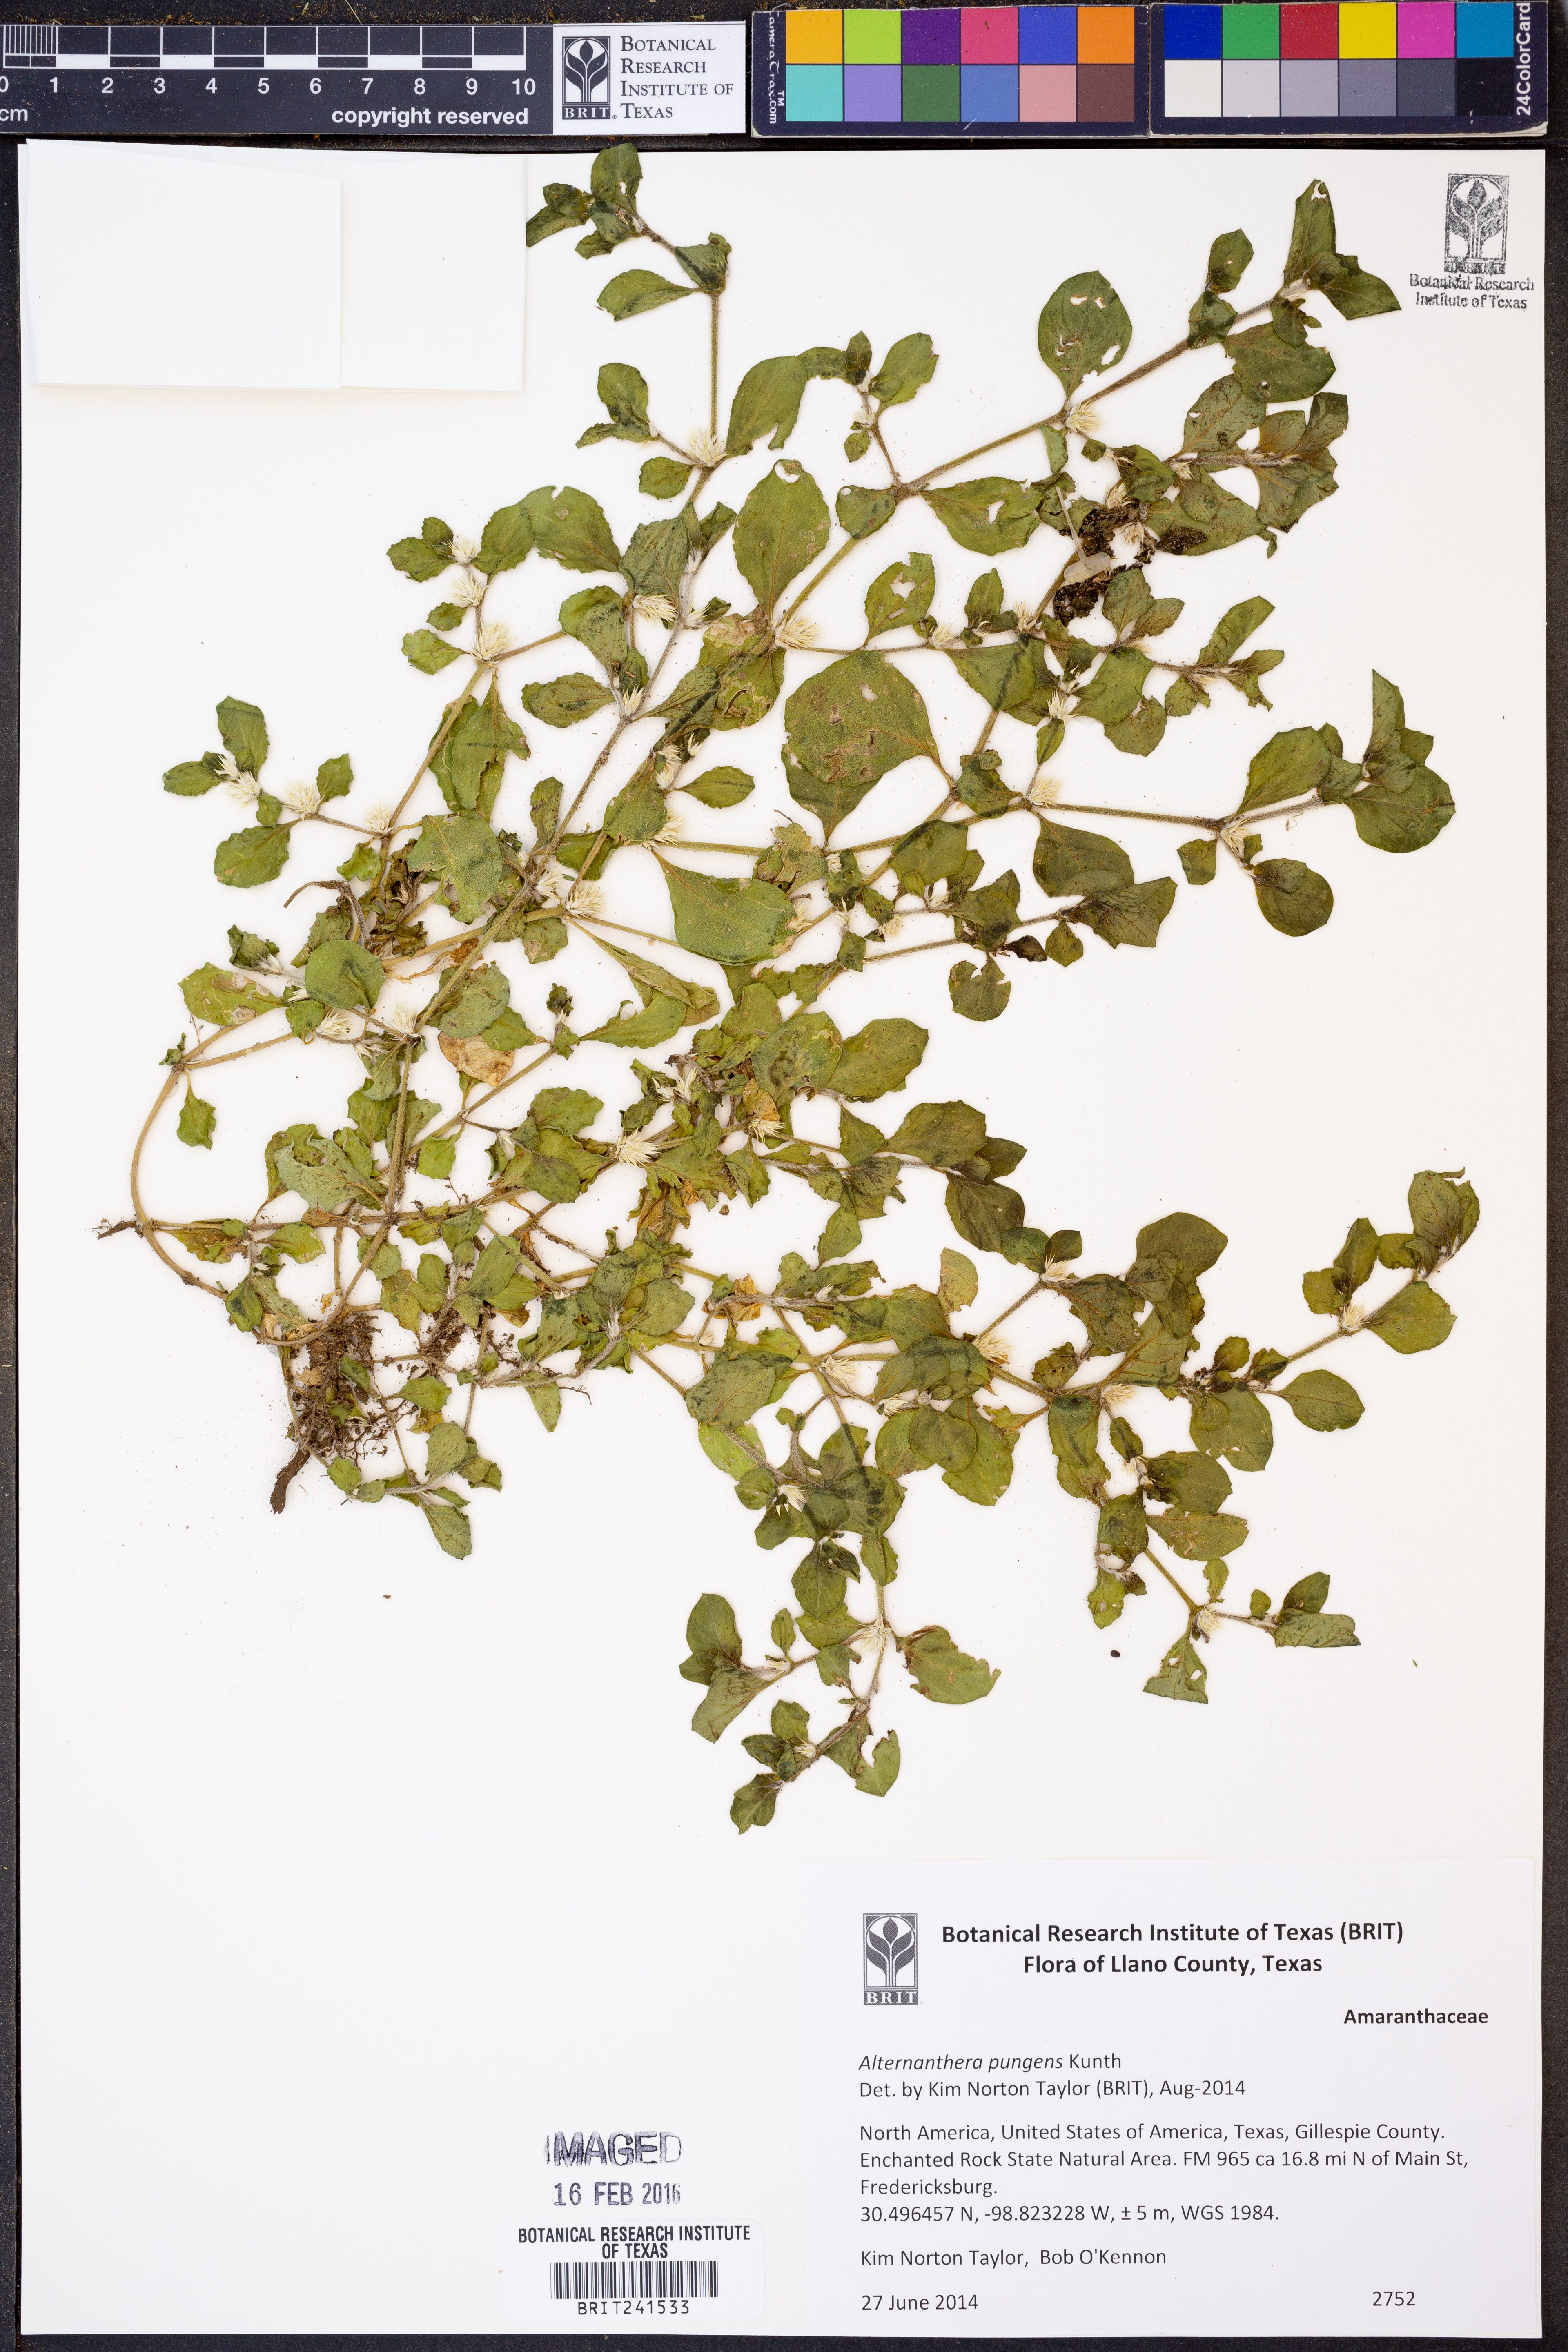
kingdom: Plantae
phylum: Tracheophyta
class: Magnoliopsida
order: Caryophyllales
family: Amaranthaceae
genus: Alternanthera
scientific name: Alternanthera pungens
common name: Khakiweed
